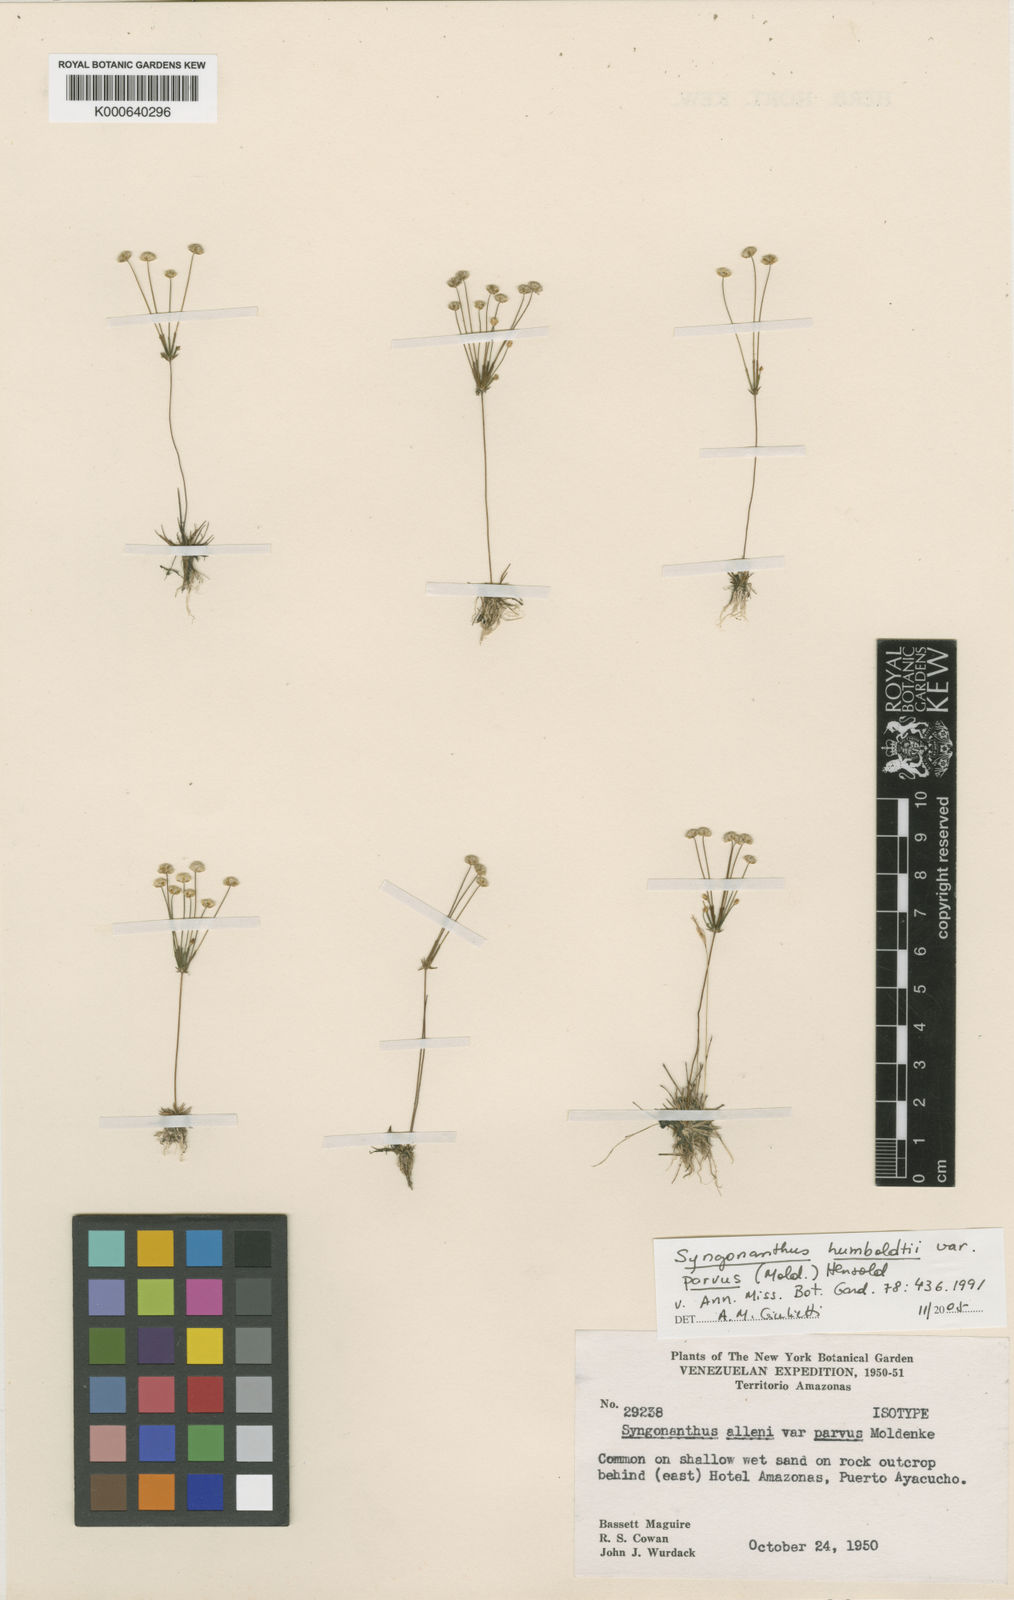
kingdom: Plantae
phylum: Tracheophyta
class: Liliopsida
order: Poales
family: Eriocaulaceae
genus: Syngonanthus
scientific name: Syngonanthus humboldtii
